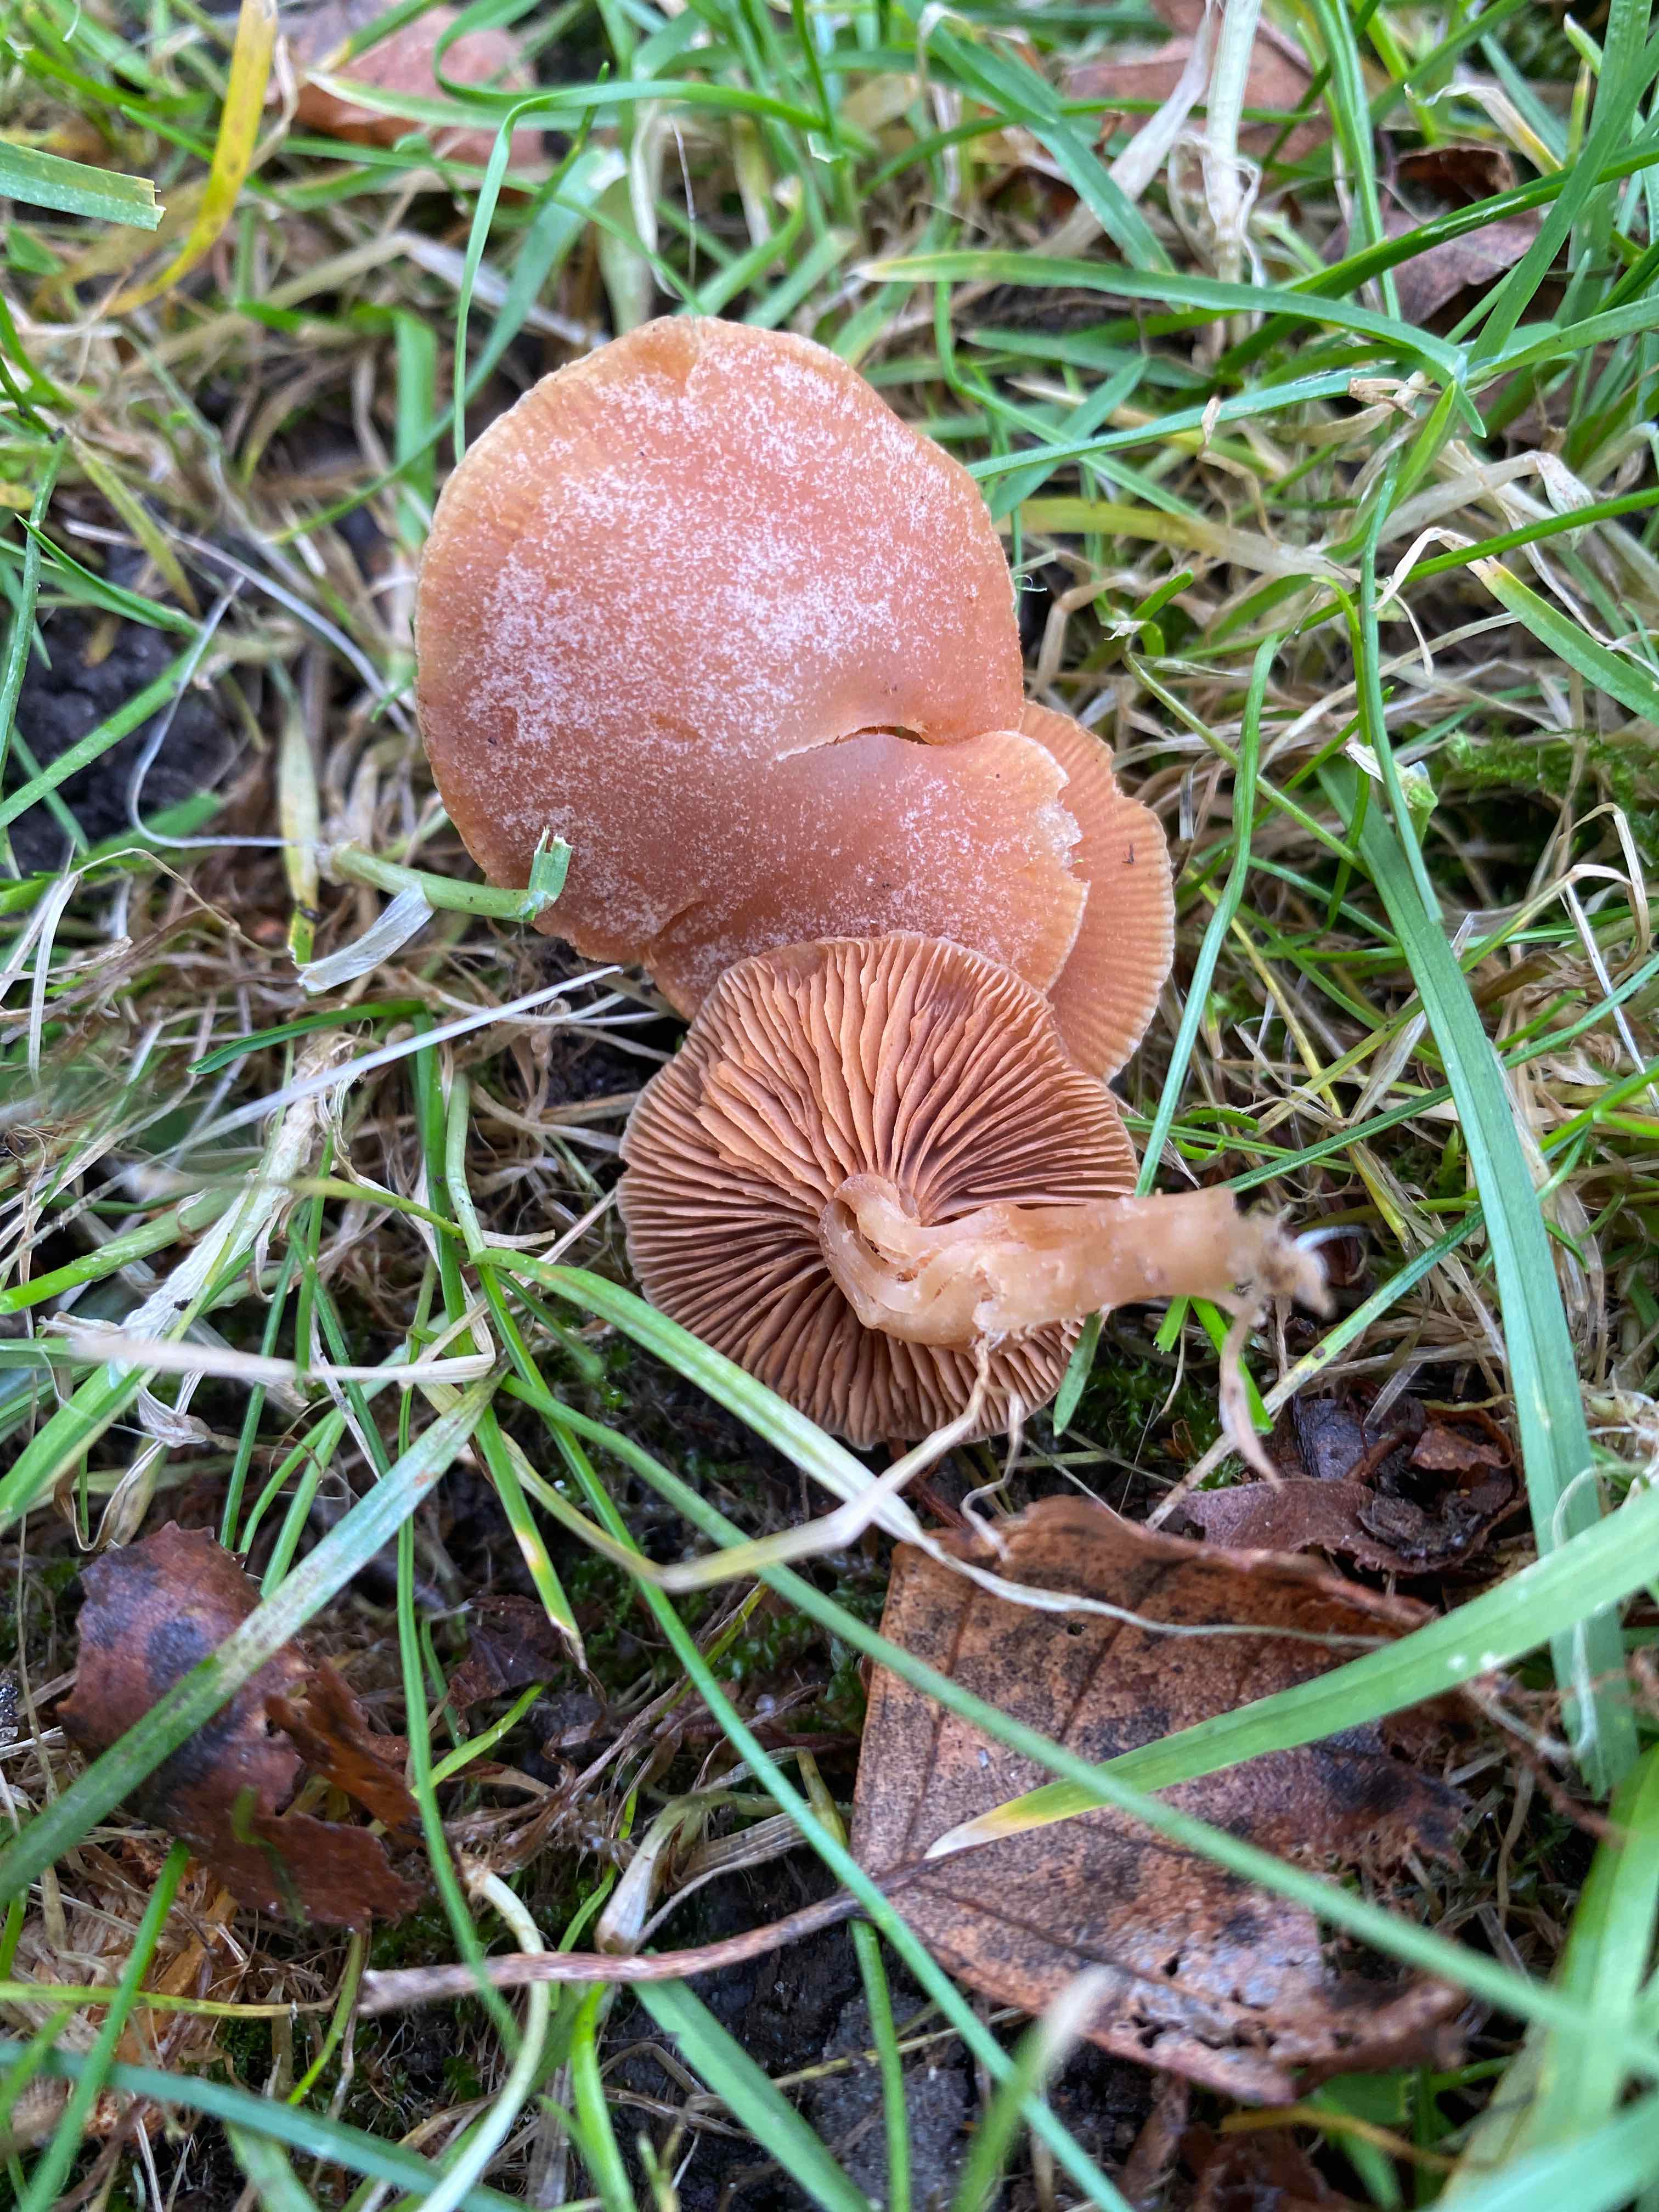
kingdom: Fungi
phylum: Basidiomycota
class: Agaricomycetes
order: Agaricales
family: Tubariaceae
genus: Tubaria
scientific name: Tubaria furfuracea
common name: kliddet fnughat
